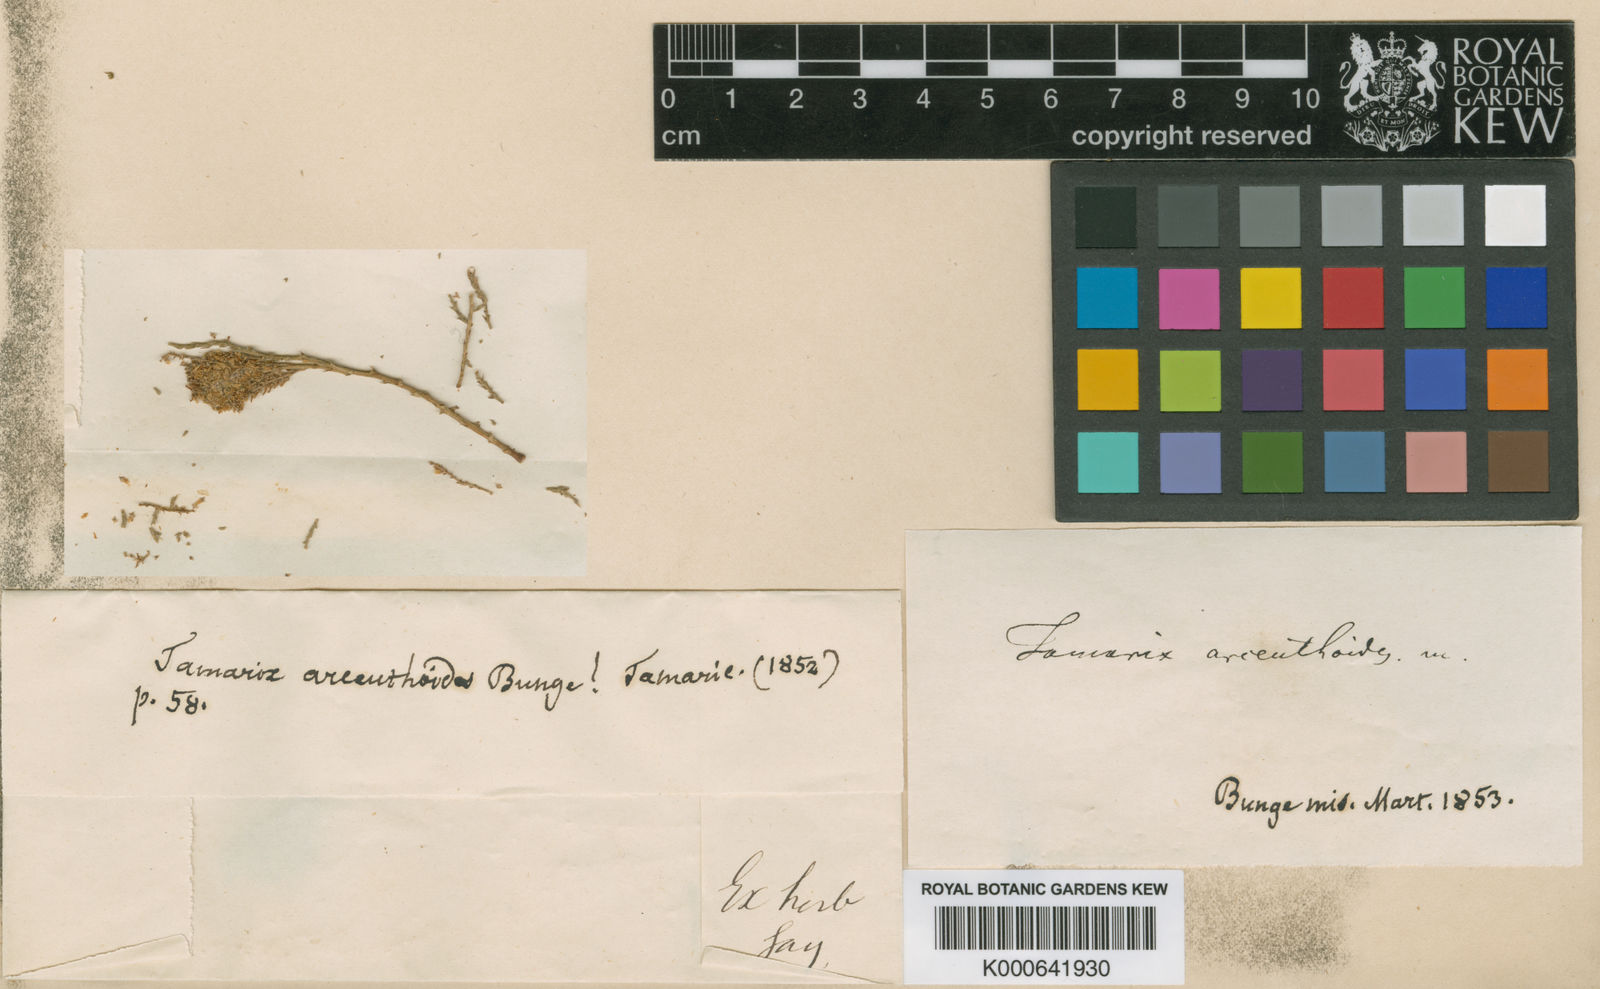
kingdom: Plantae
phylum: Tracheophyta
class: Magnoliopsida
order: Caryophyllales
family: Tamaricaceae
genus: Tamarix
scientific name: Tamarix arceuthoides
